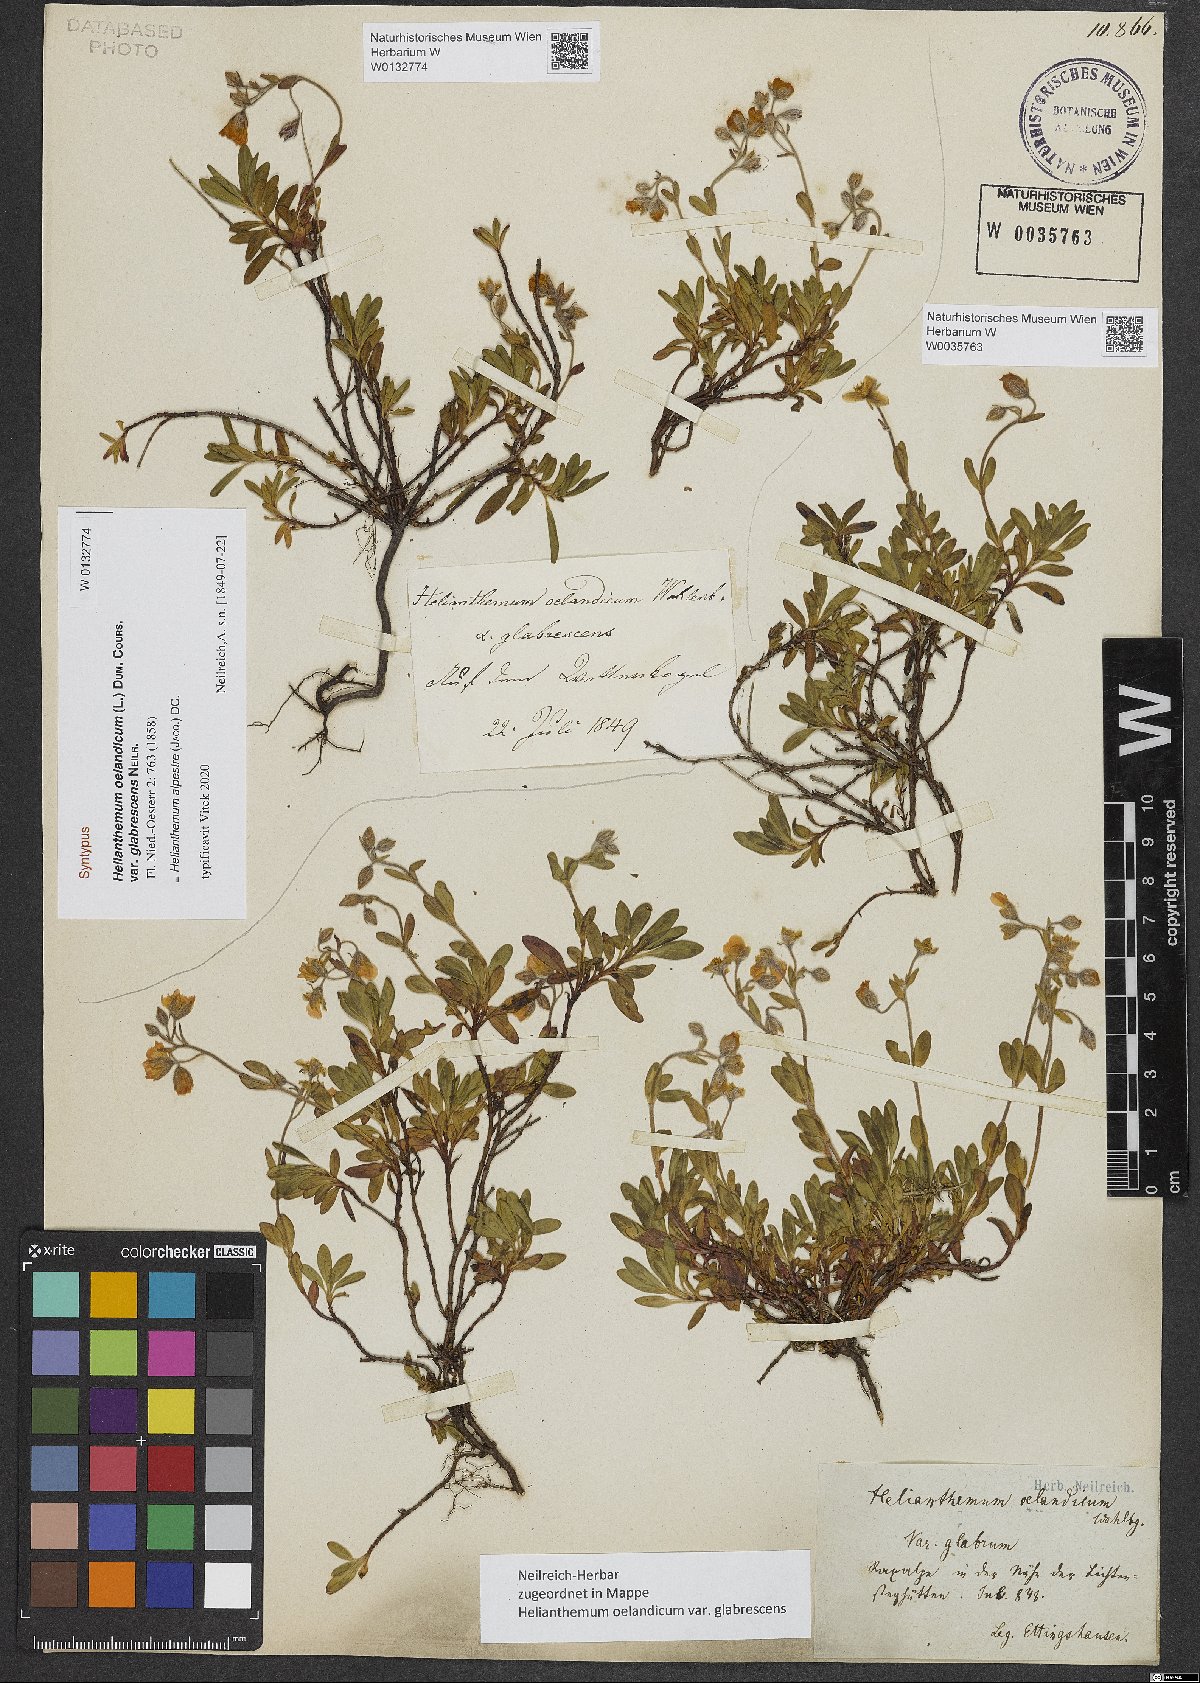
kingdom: Plantae
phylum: Tracheophyta
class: Magnoliopsida
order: Malvales
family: Cistaceae
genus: Helianthemum
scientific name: Helianthemum oelandicum
